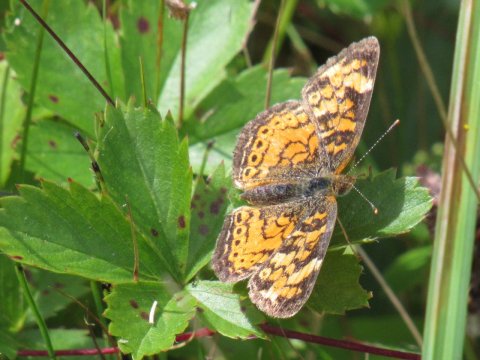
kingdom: Animalia
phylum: Arthropoda
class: Insecta
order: Lepidoptera
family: Nymphalidae
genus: Phyciodes
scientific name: Phyciodes
